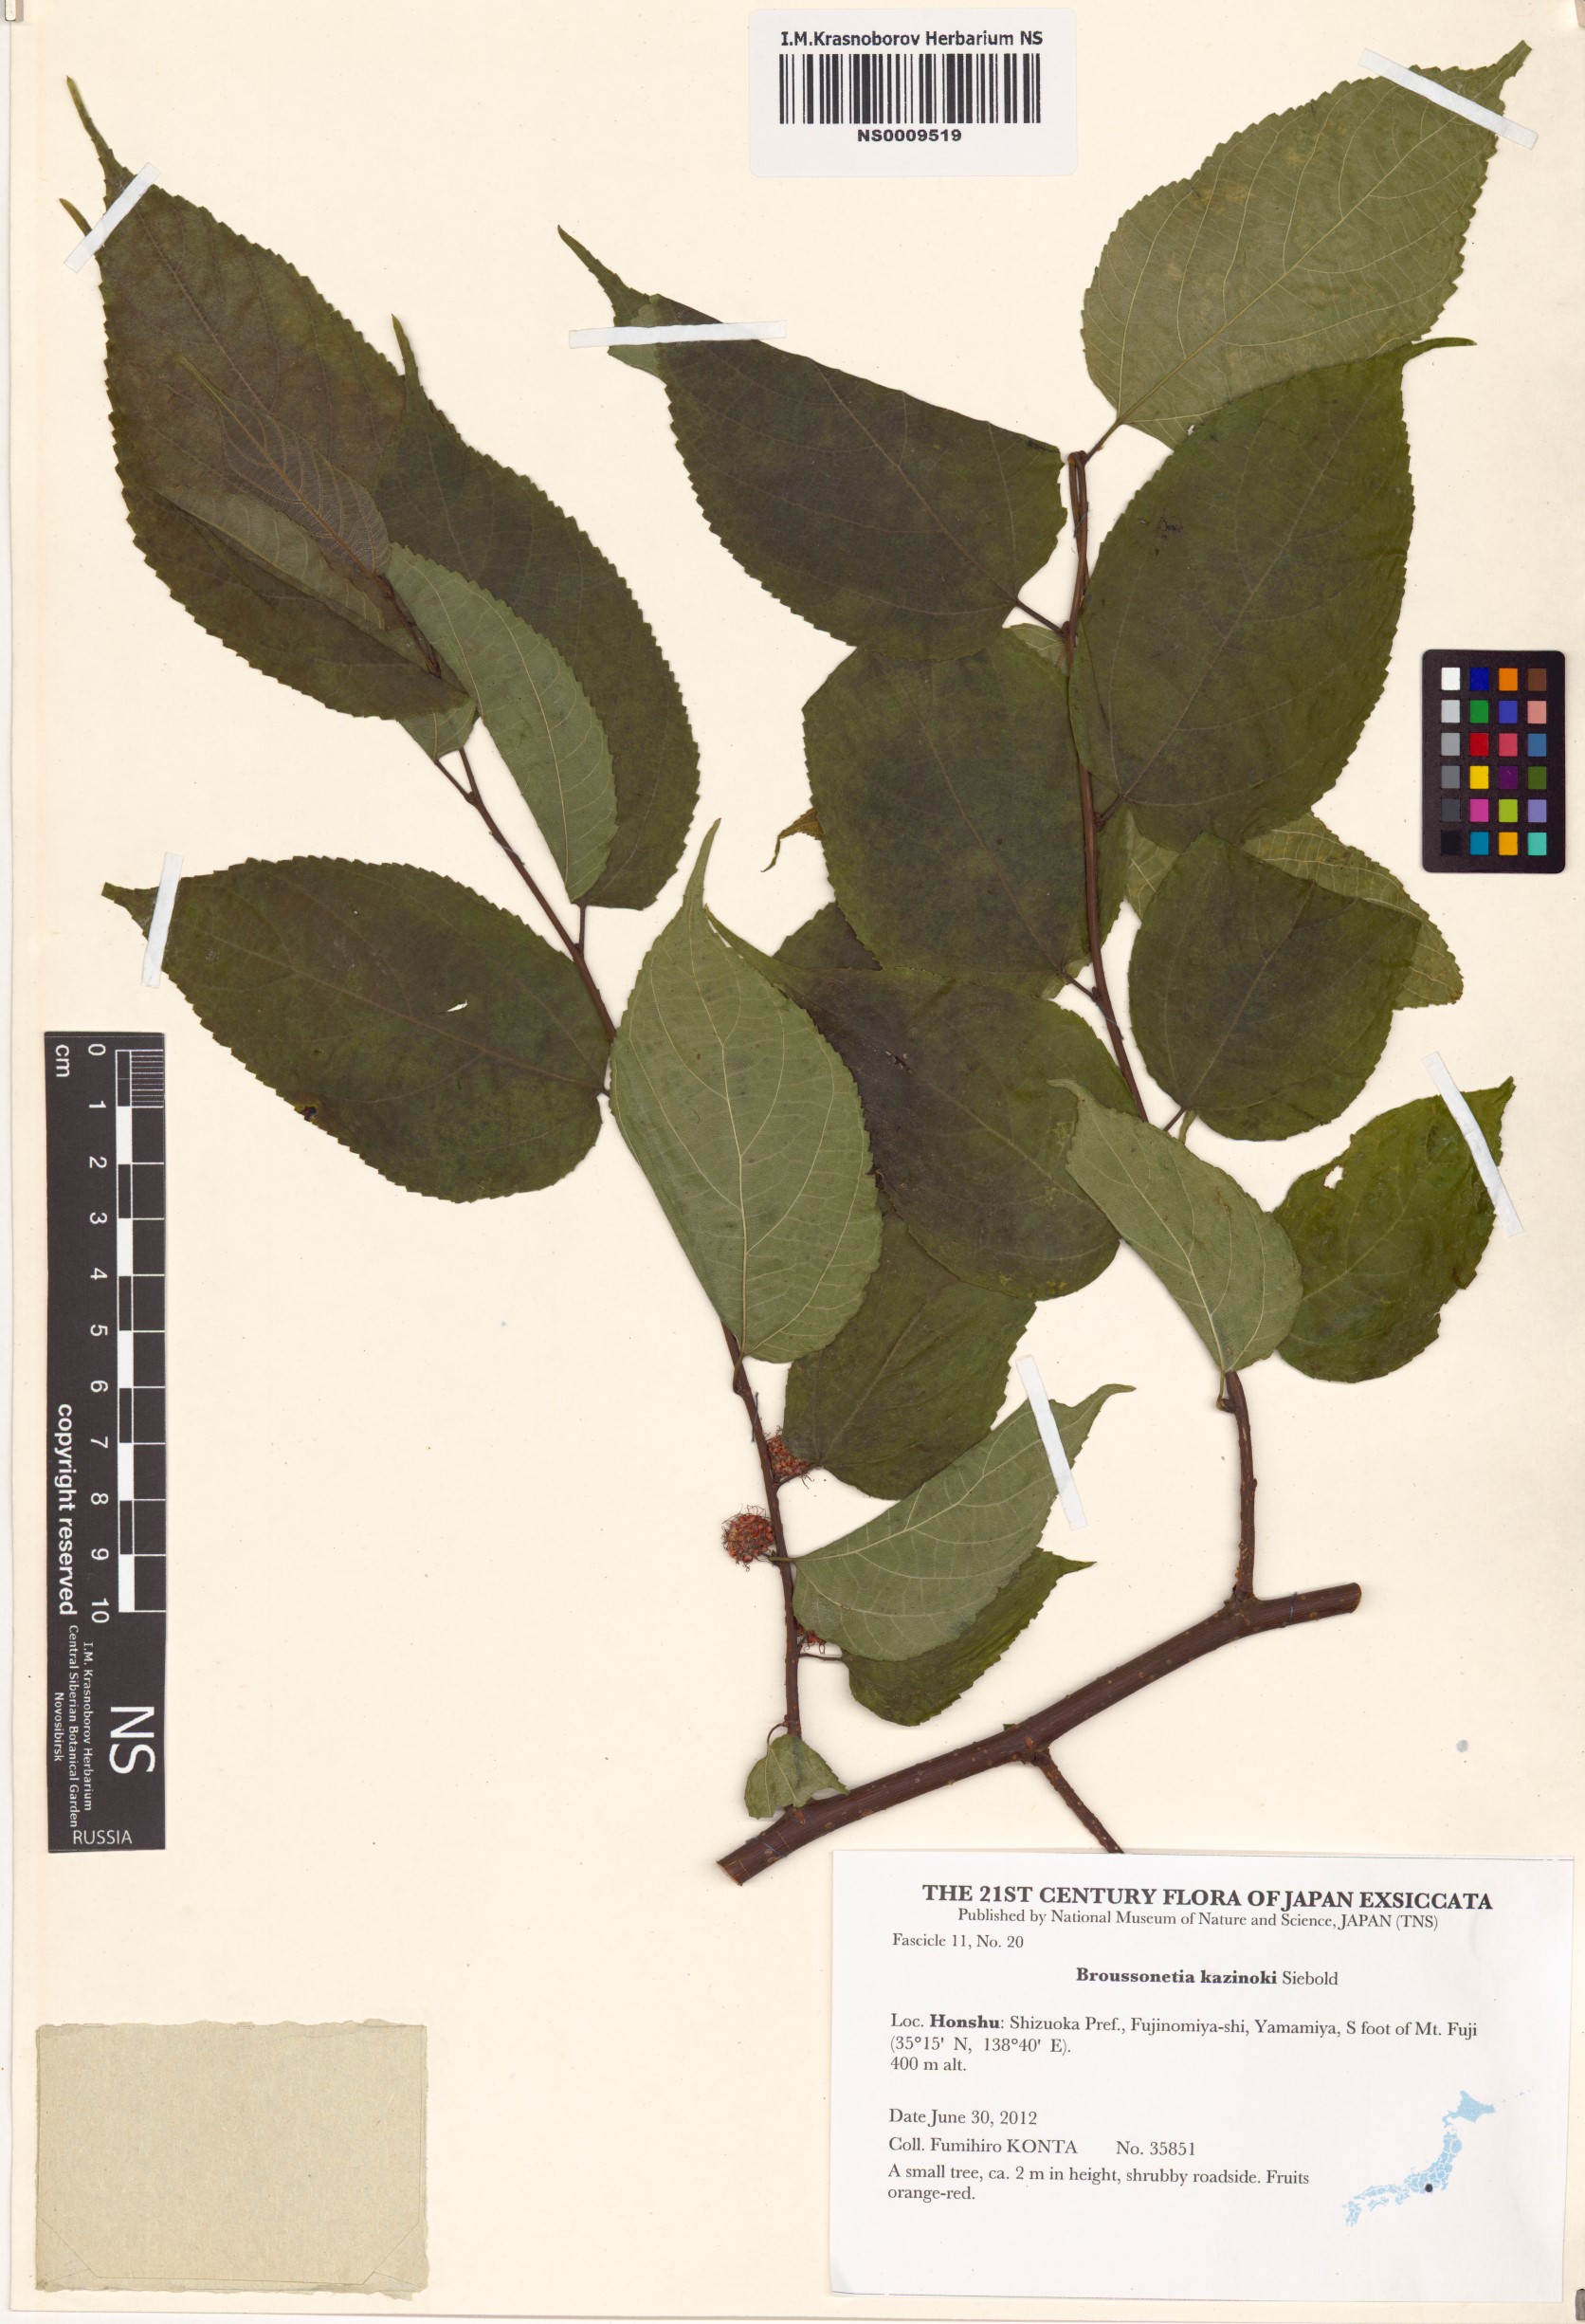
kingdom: Plantae
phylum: Tracheophyta
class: Magnoliopsida
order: Rosales
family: Moraceae
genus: Broussonetia
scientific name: Broussonetia kazinoki
